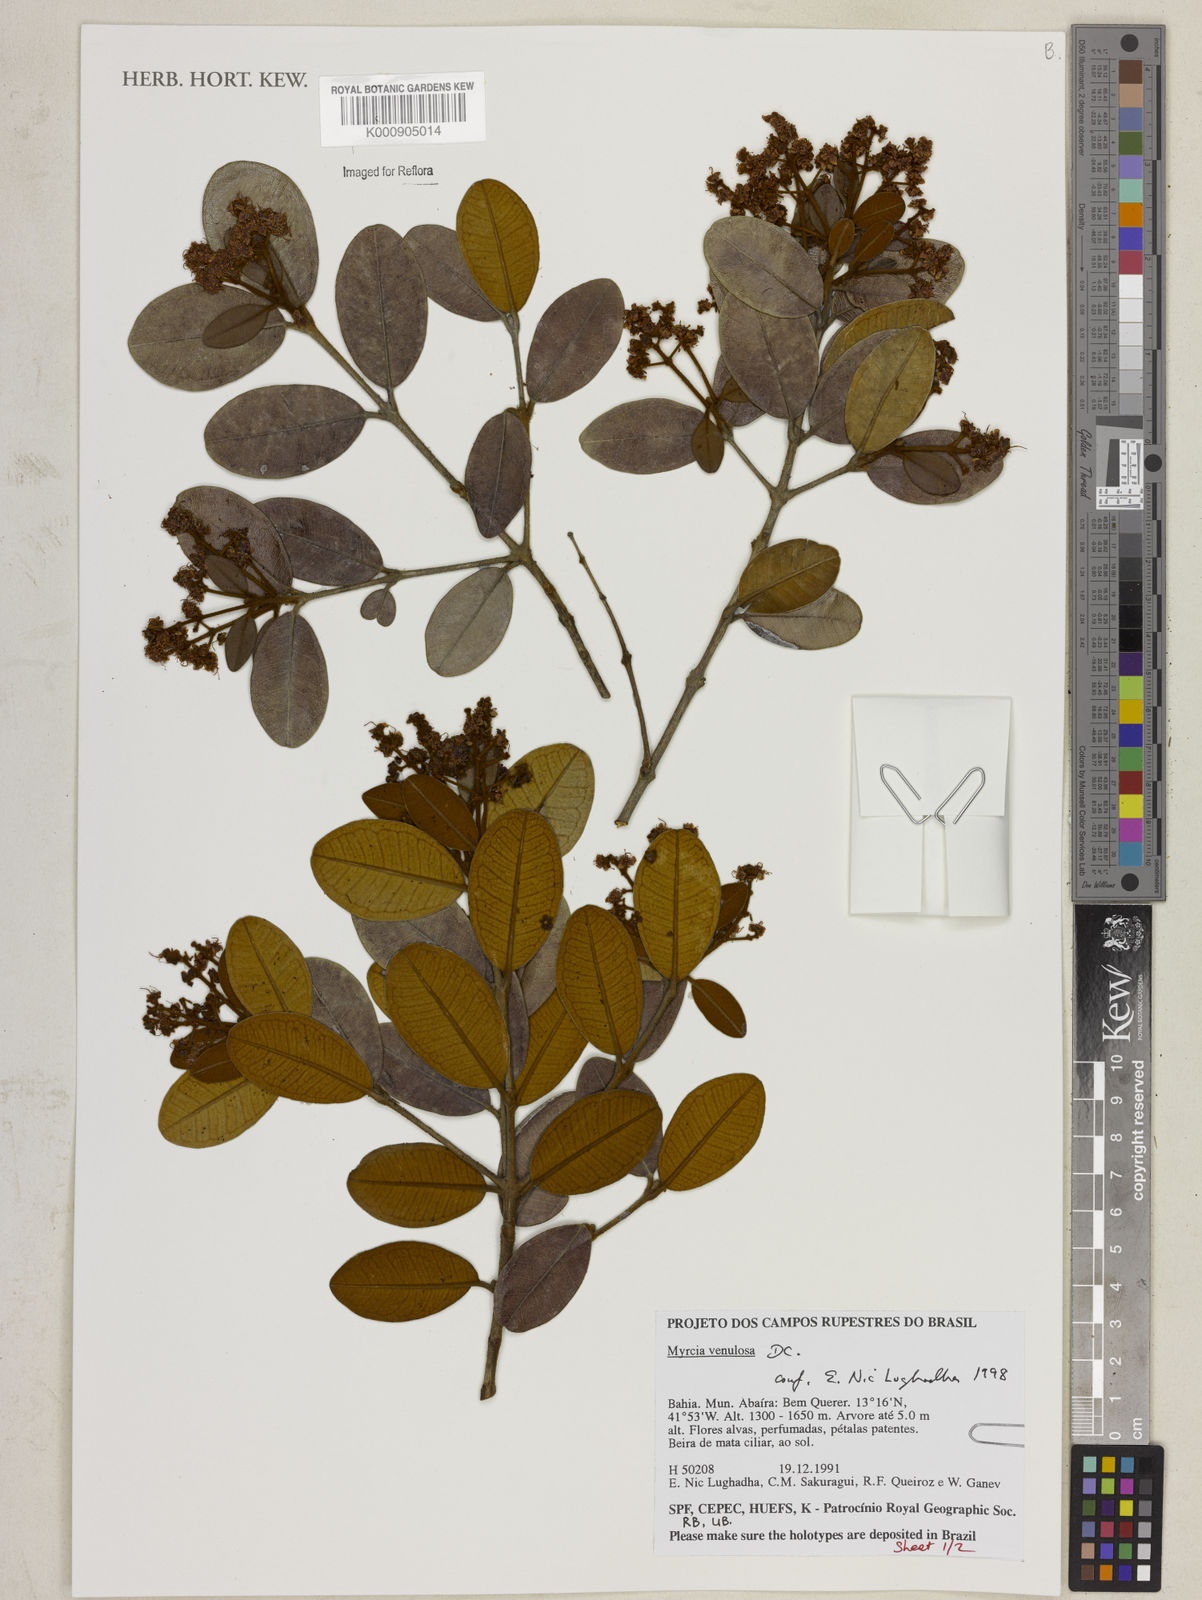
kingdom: Plantae
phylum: Tracheophyta
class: Magnoliopsida
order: Myrtales
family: Myrtaceae
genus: Myrcia
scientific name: Myrcia venulosa
